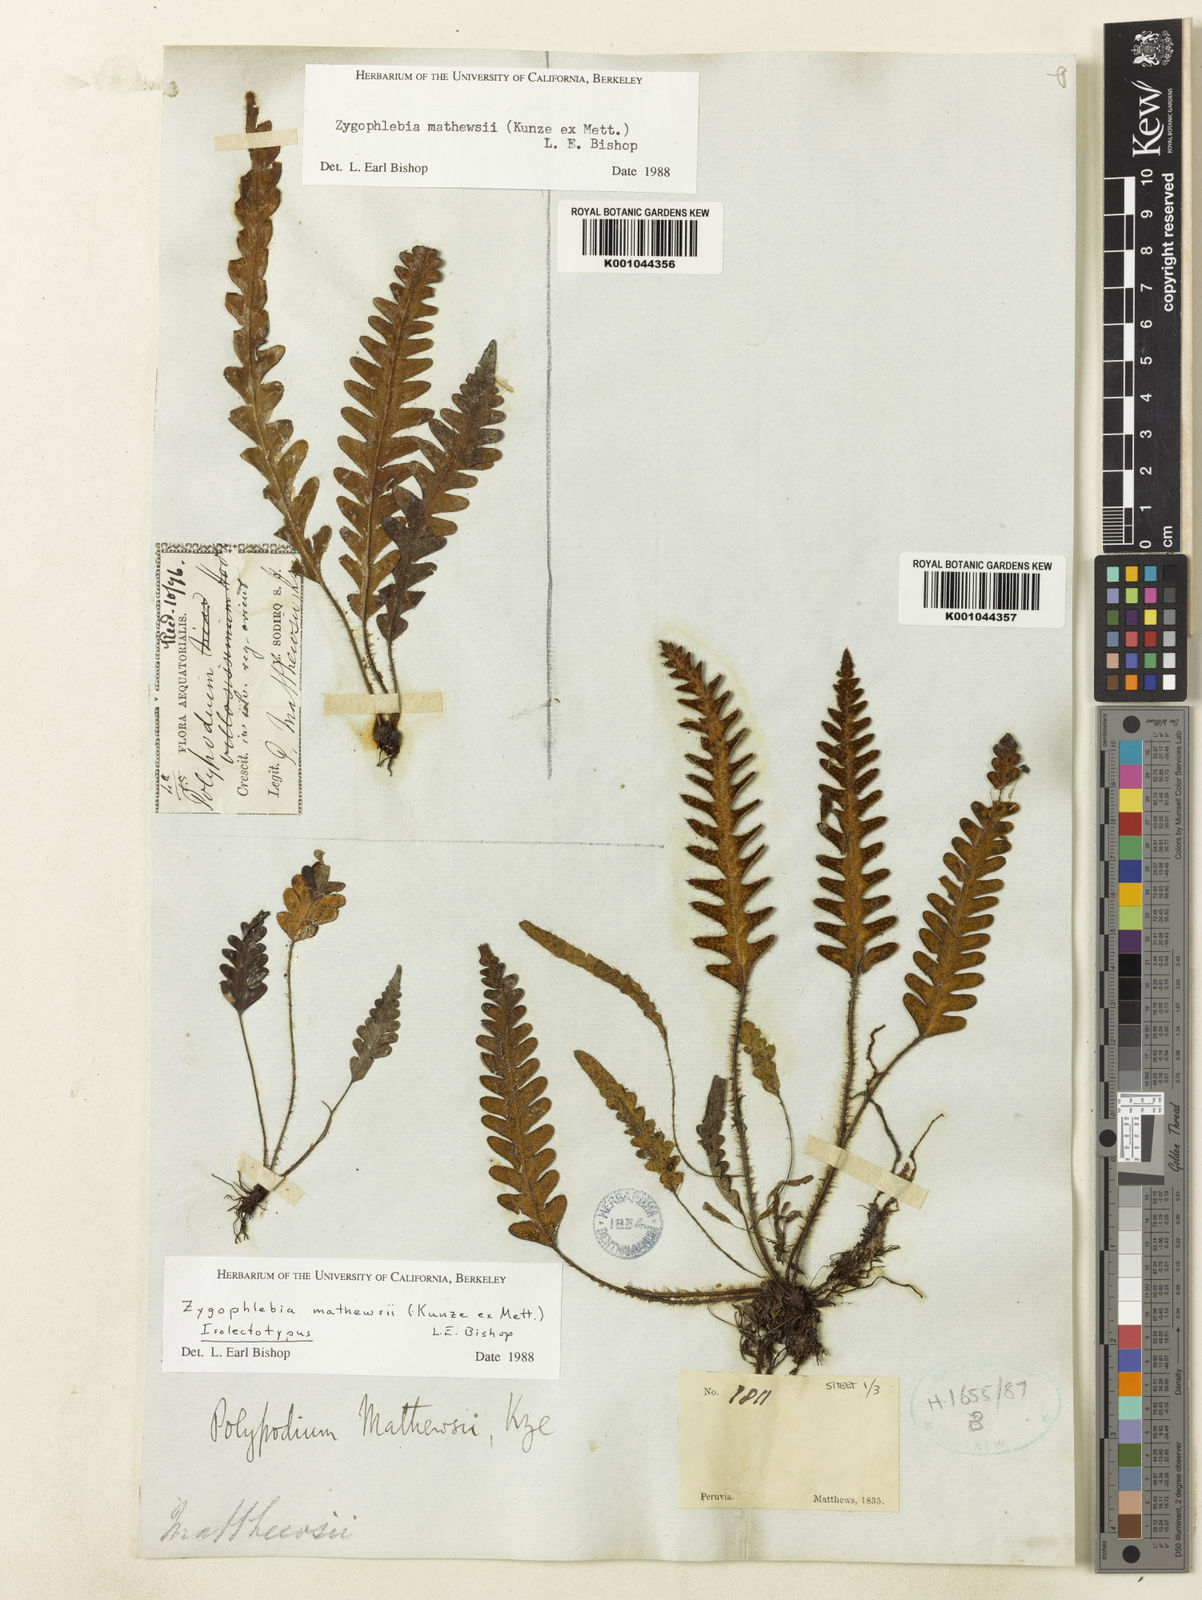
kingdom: Plantae
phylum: Tracheophyta
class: Polypodiopsida
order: Polypodiales
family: Polypodiaceae
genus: Enterosora
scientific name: Enterosora mathewsii
